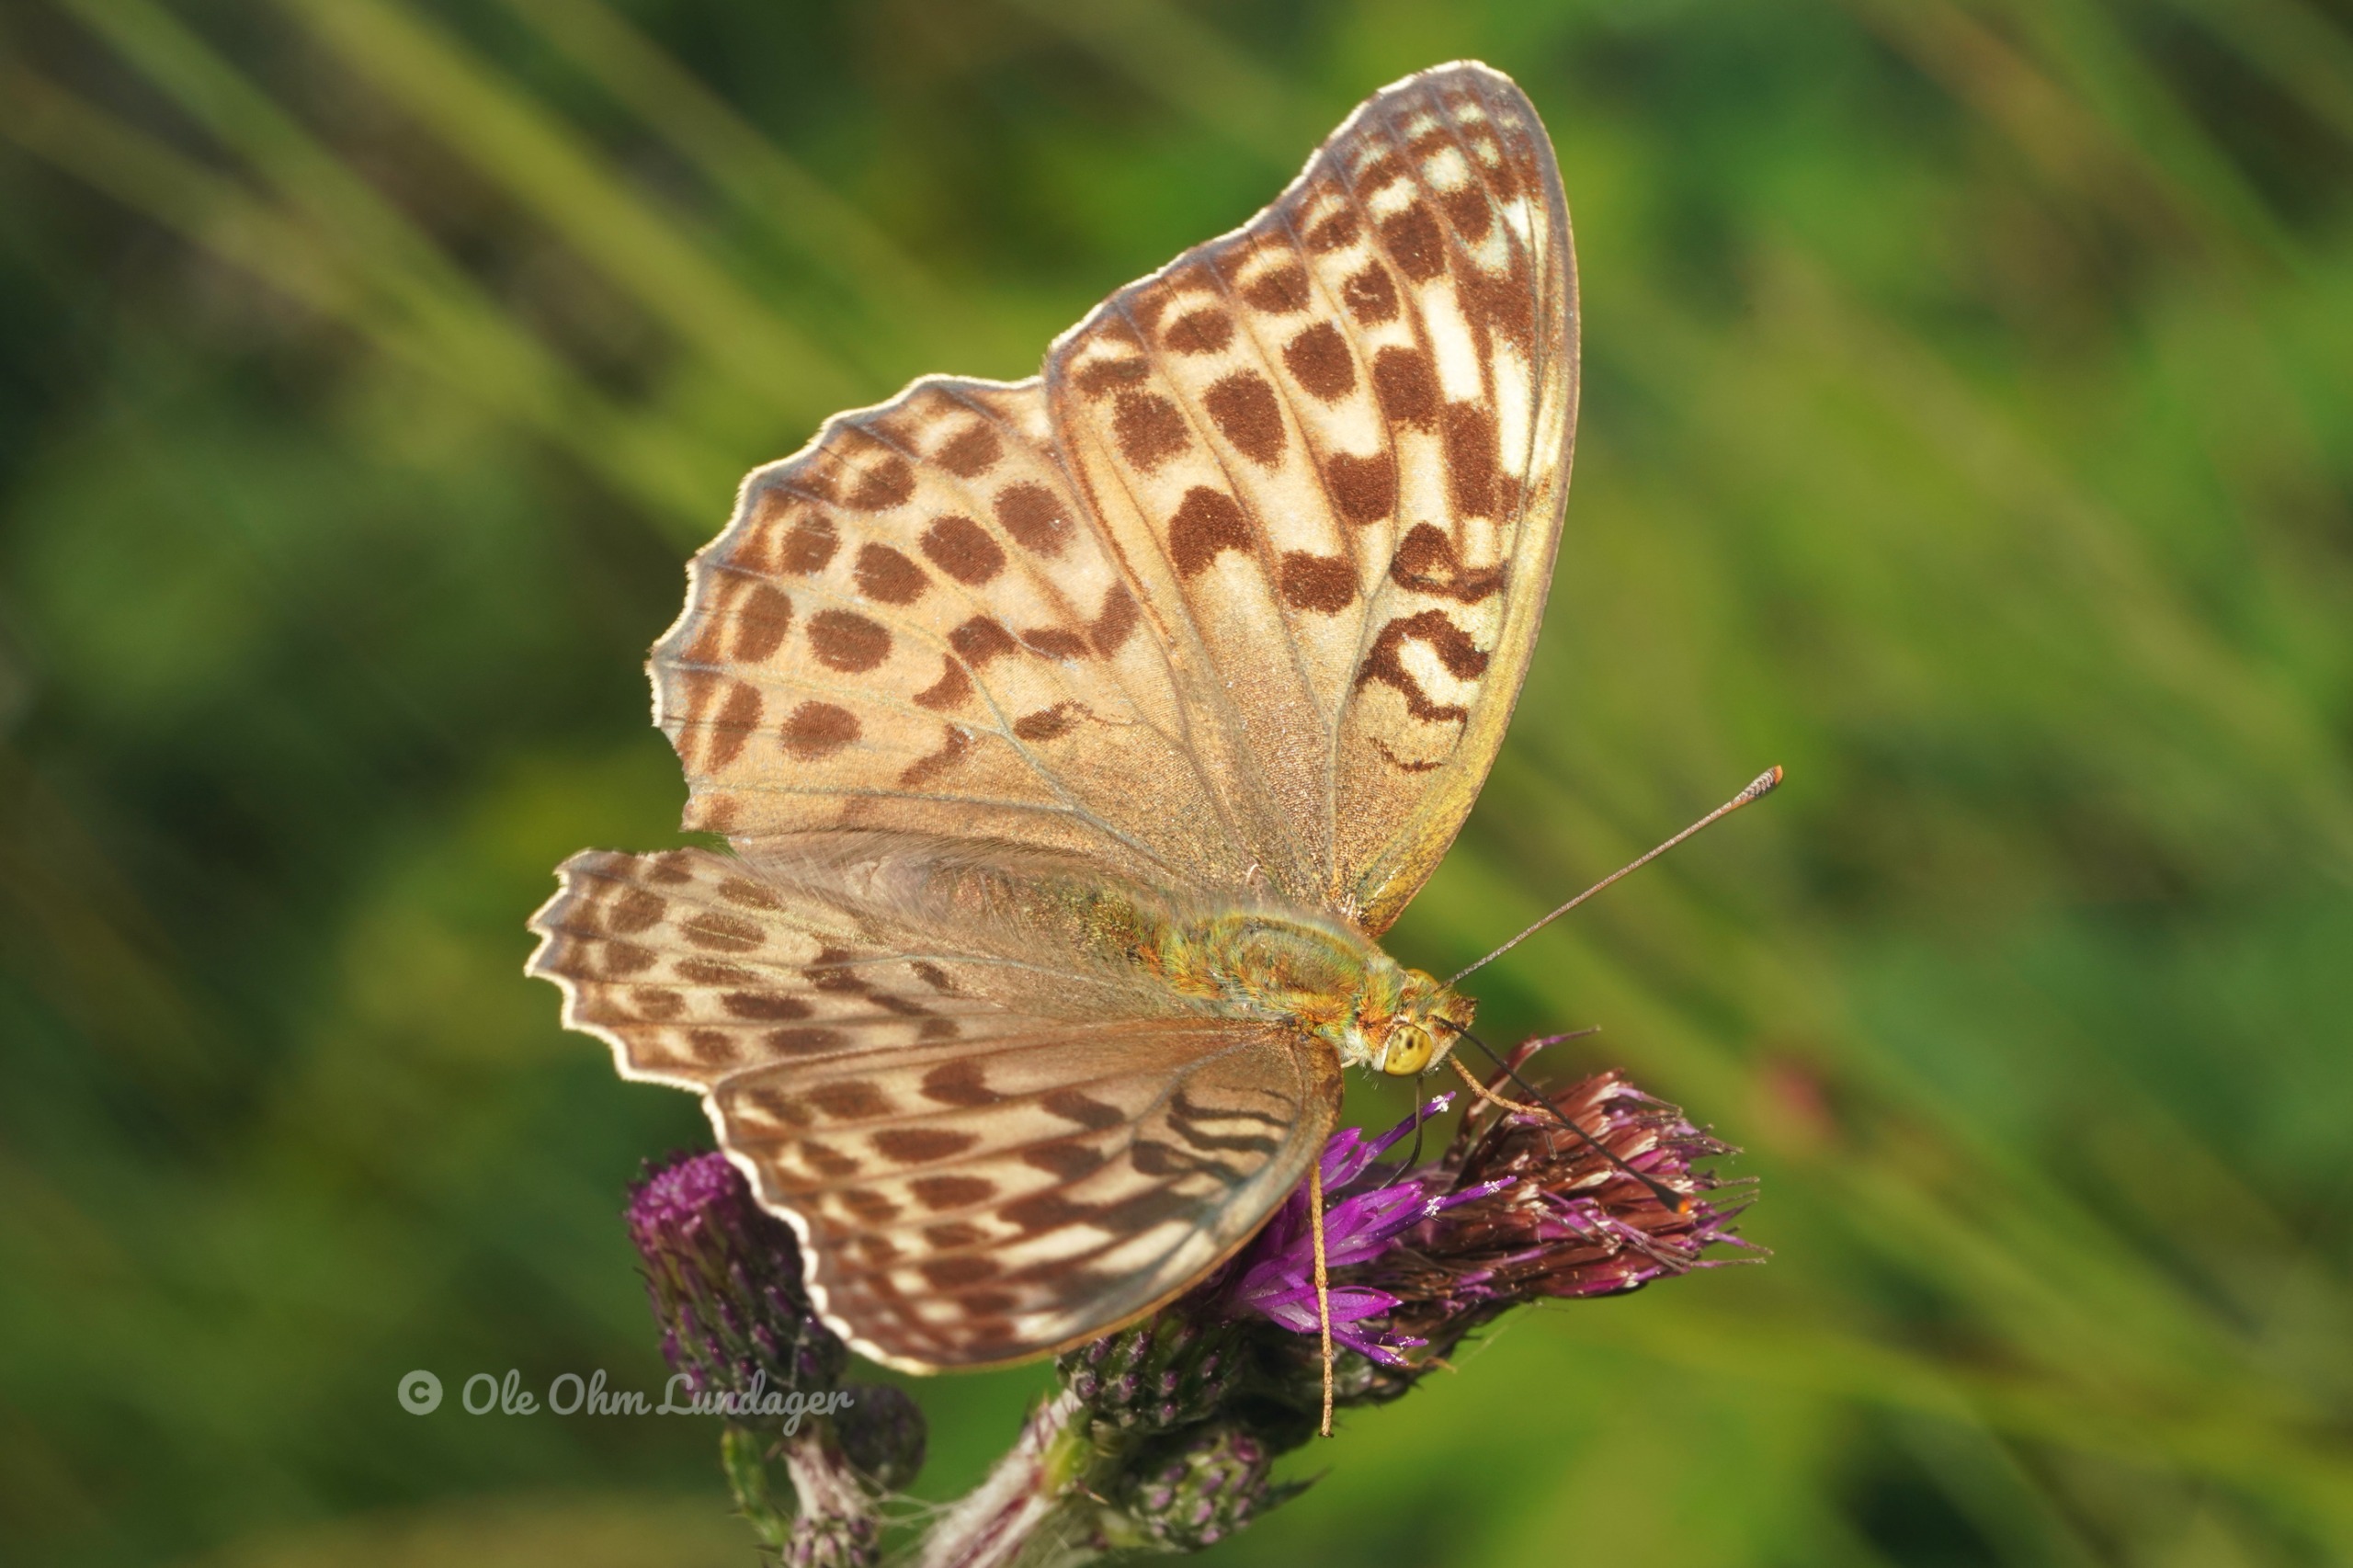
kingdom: Animalia
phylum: Arthropoda
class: Insecta
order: Lepidoptera
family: Nymphalidae
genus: Argynnis
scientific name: Argynnis paphia
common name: Kejserkåbe
